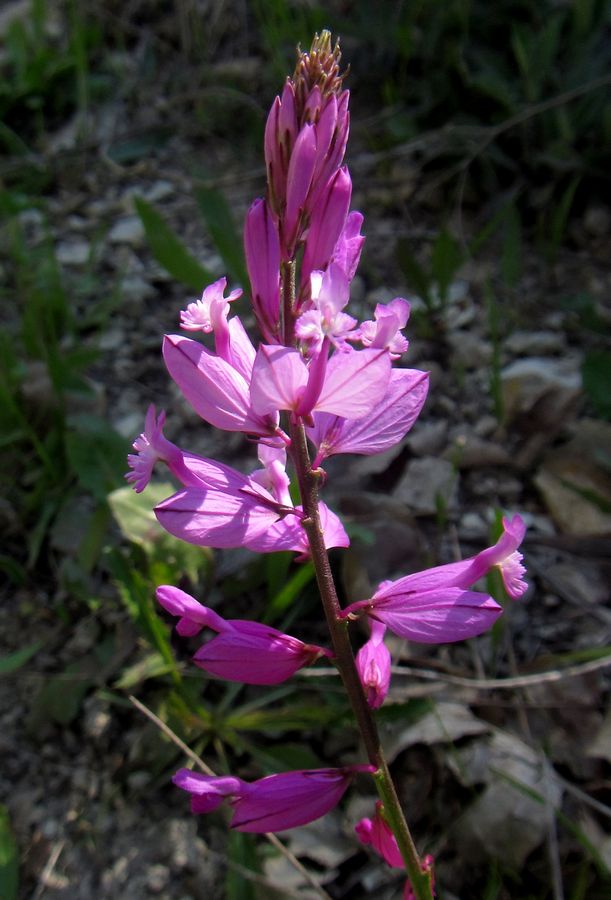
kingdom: Plantae
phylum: Tracheophyta
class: Magnoliopsida
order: Fabales
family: Polygalaceae
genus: Polygala
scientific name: Polygala major
